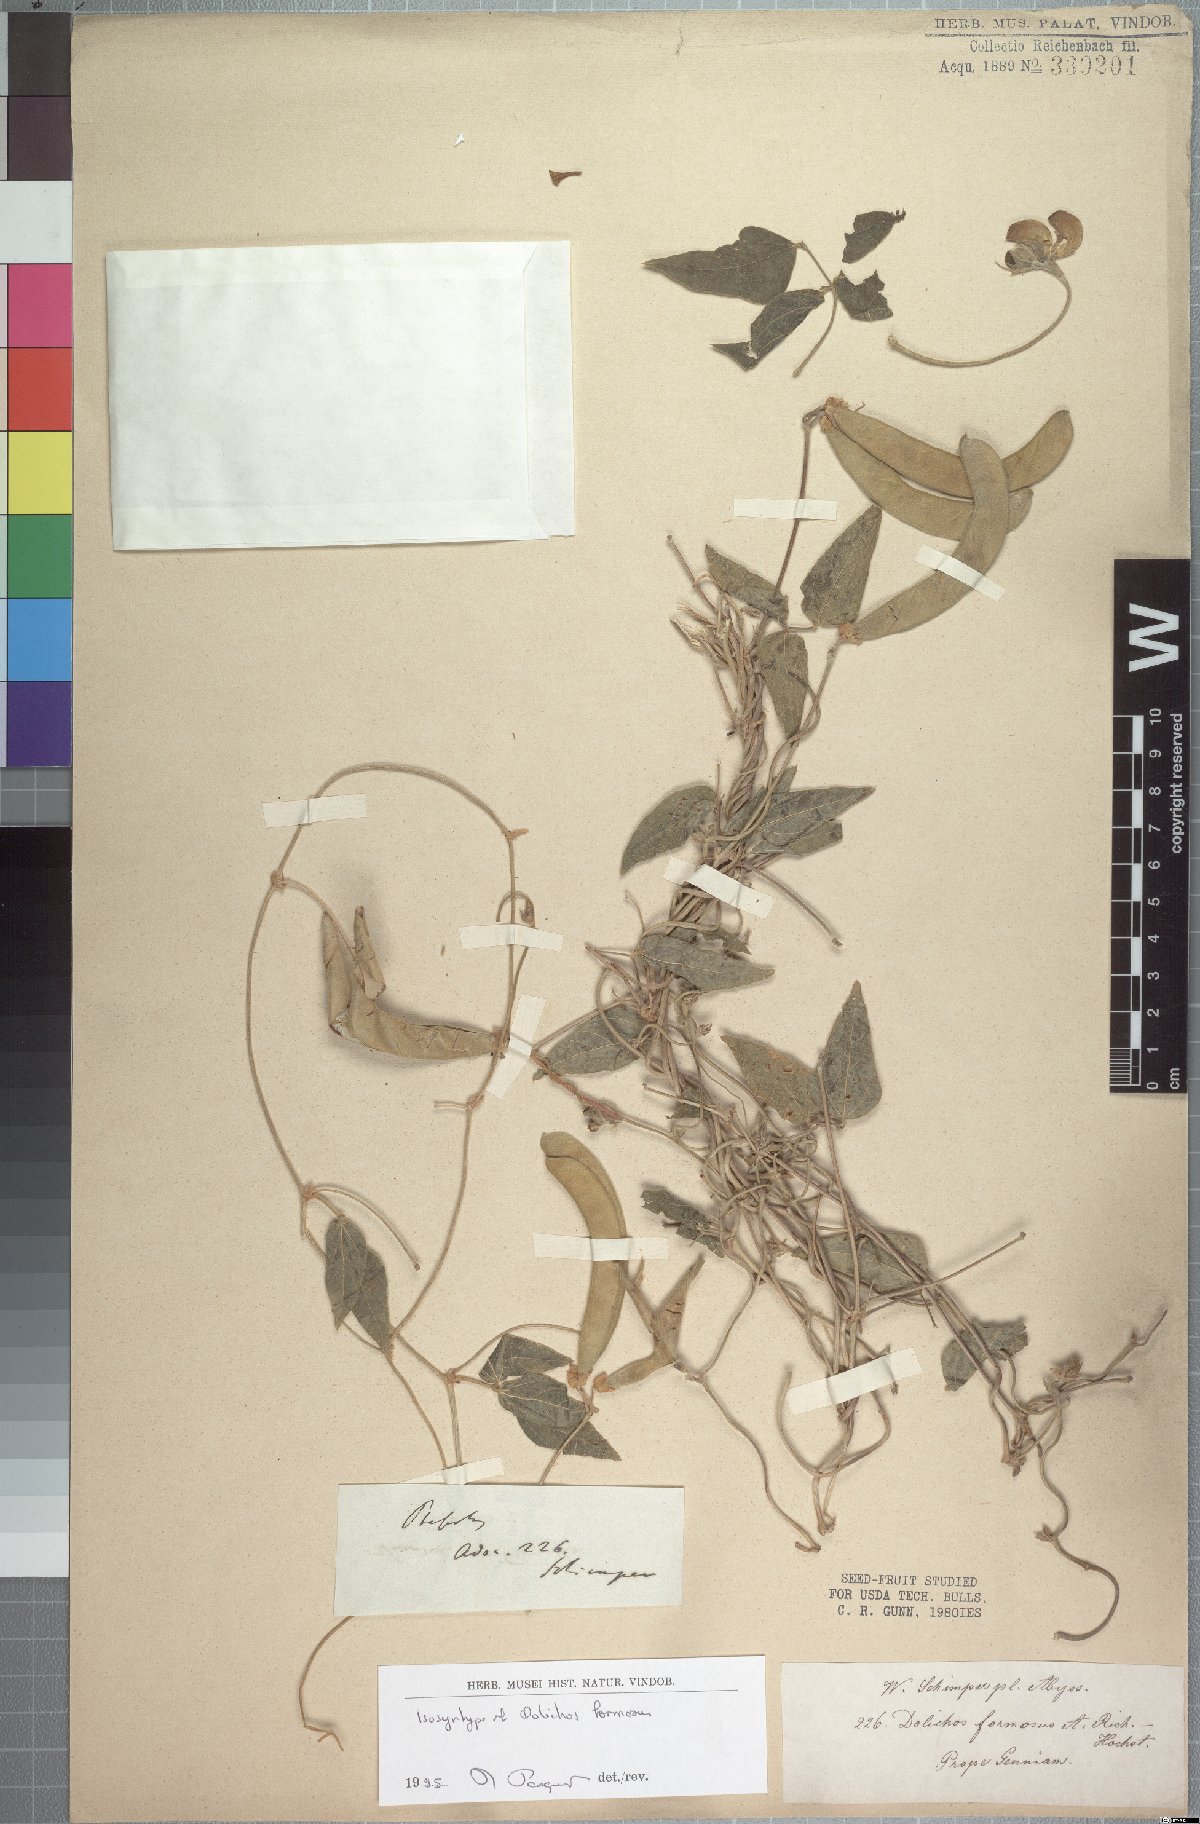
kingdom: Plantae
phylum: Tracheophyta
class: Magnoliopsida
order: Fabales
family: Fabaceae
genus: Dolichos
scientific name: Dolichos sericeus
